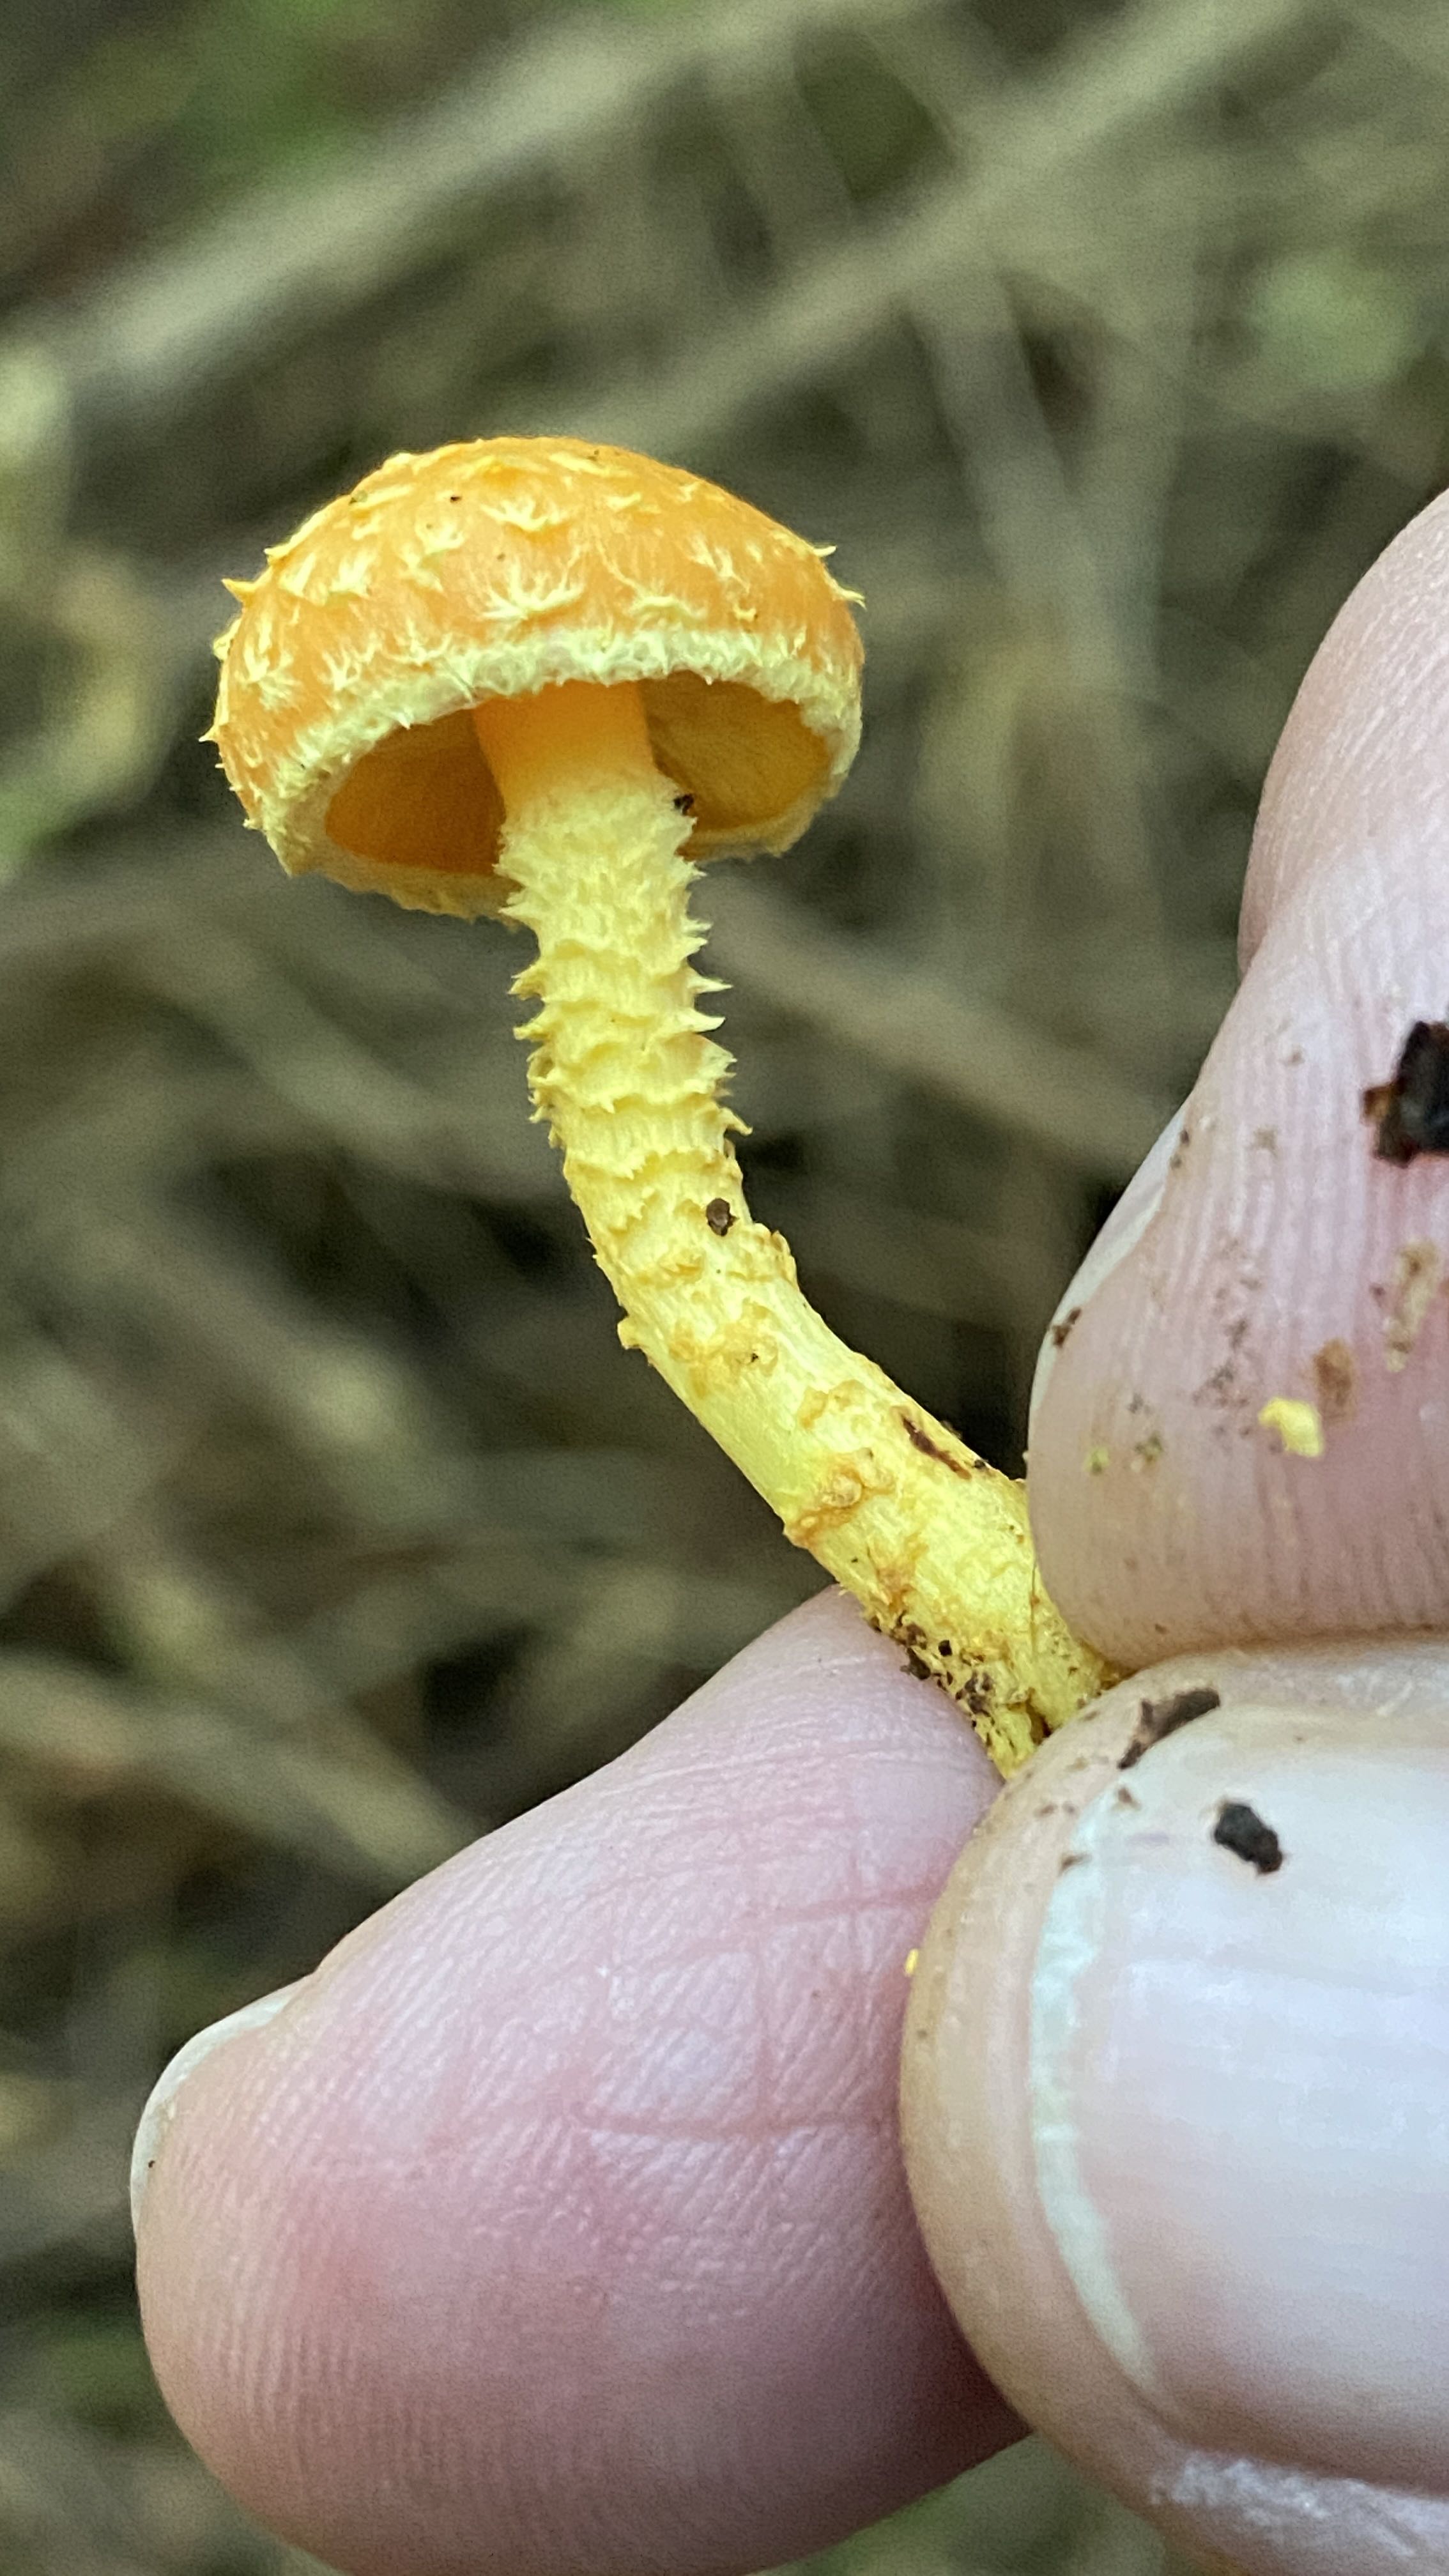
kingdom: Fungi
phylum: Basidiomycota
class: Agaricomycetes
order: Agaricales
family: Strophariaceae
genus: Pholiota
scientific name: Pholiota flammans
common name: flamme-skælhat
